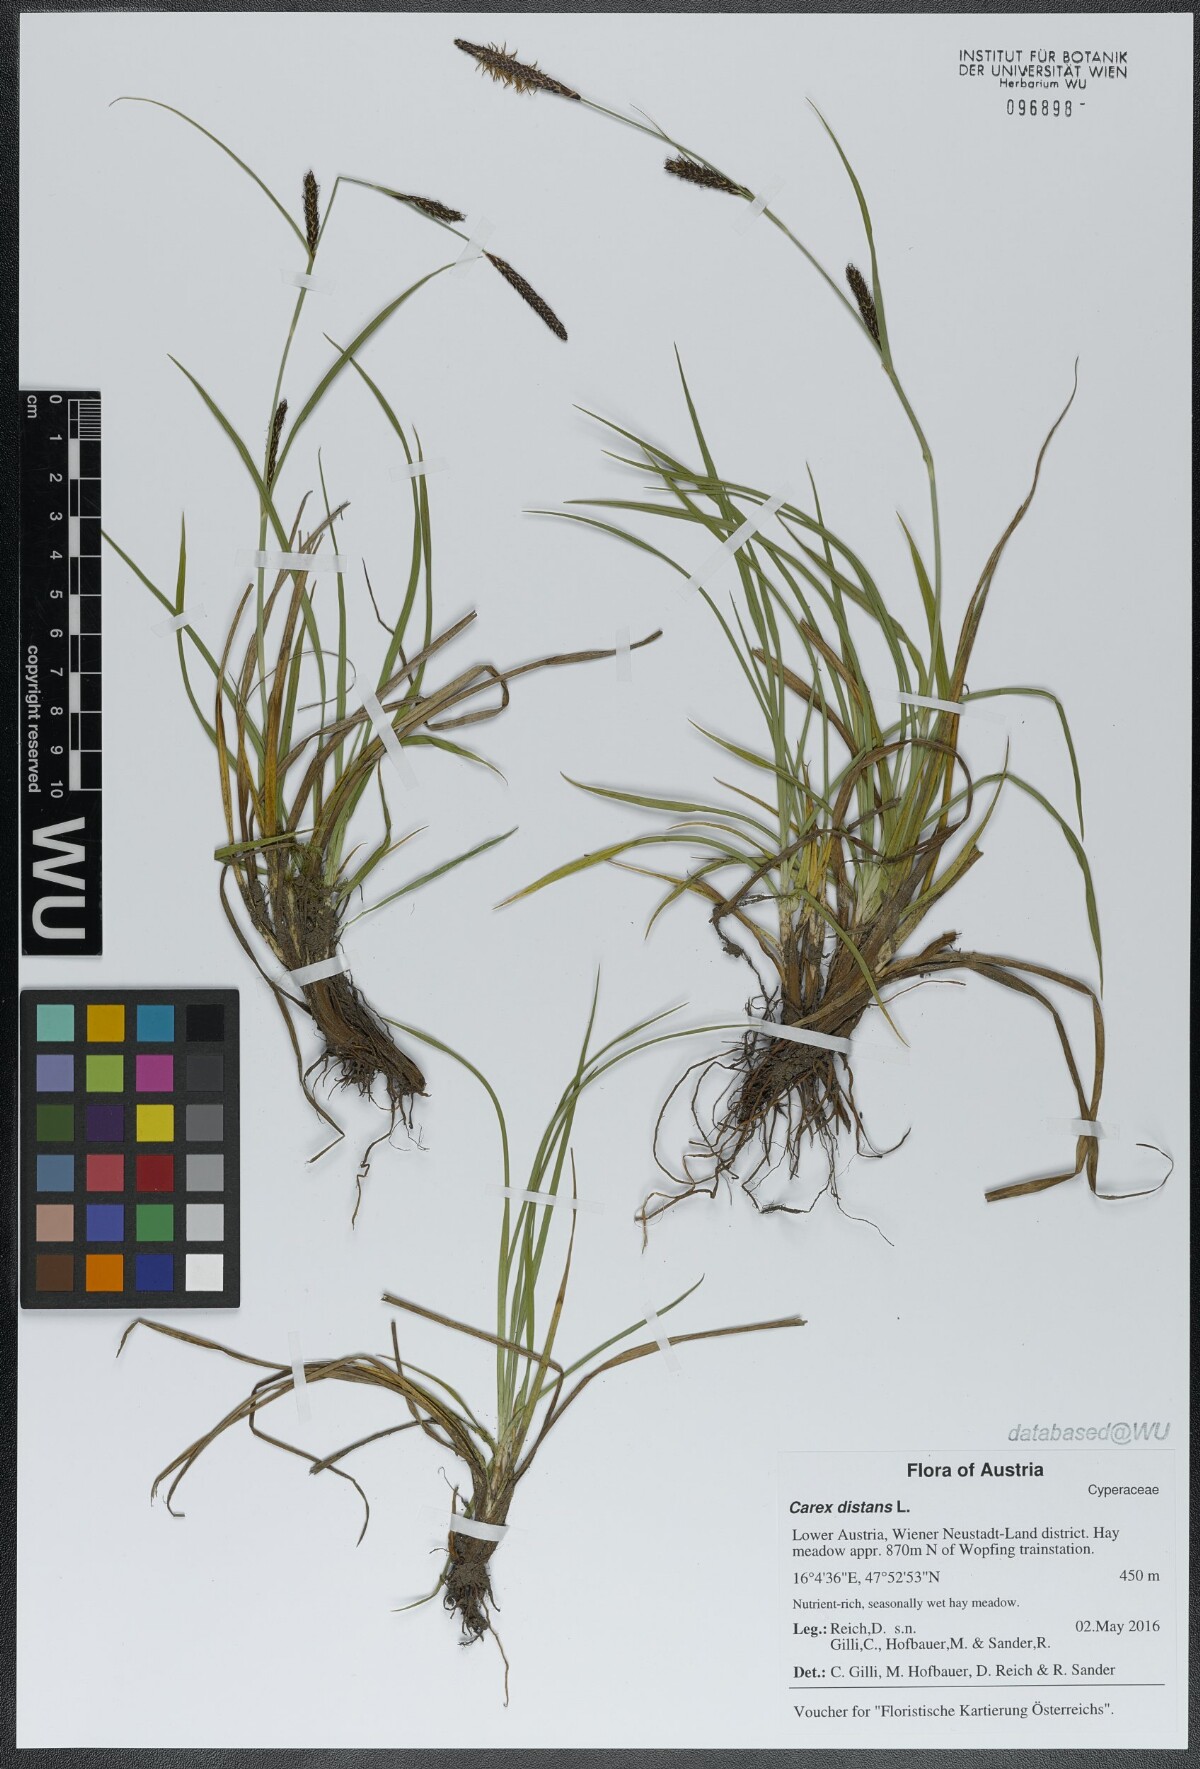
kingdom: Plantae
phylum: Tracheophyta
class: Liliopsida
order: Poales
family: Cyperaceae
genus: Carex
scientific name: Carex distans
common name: Distant sedge
